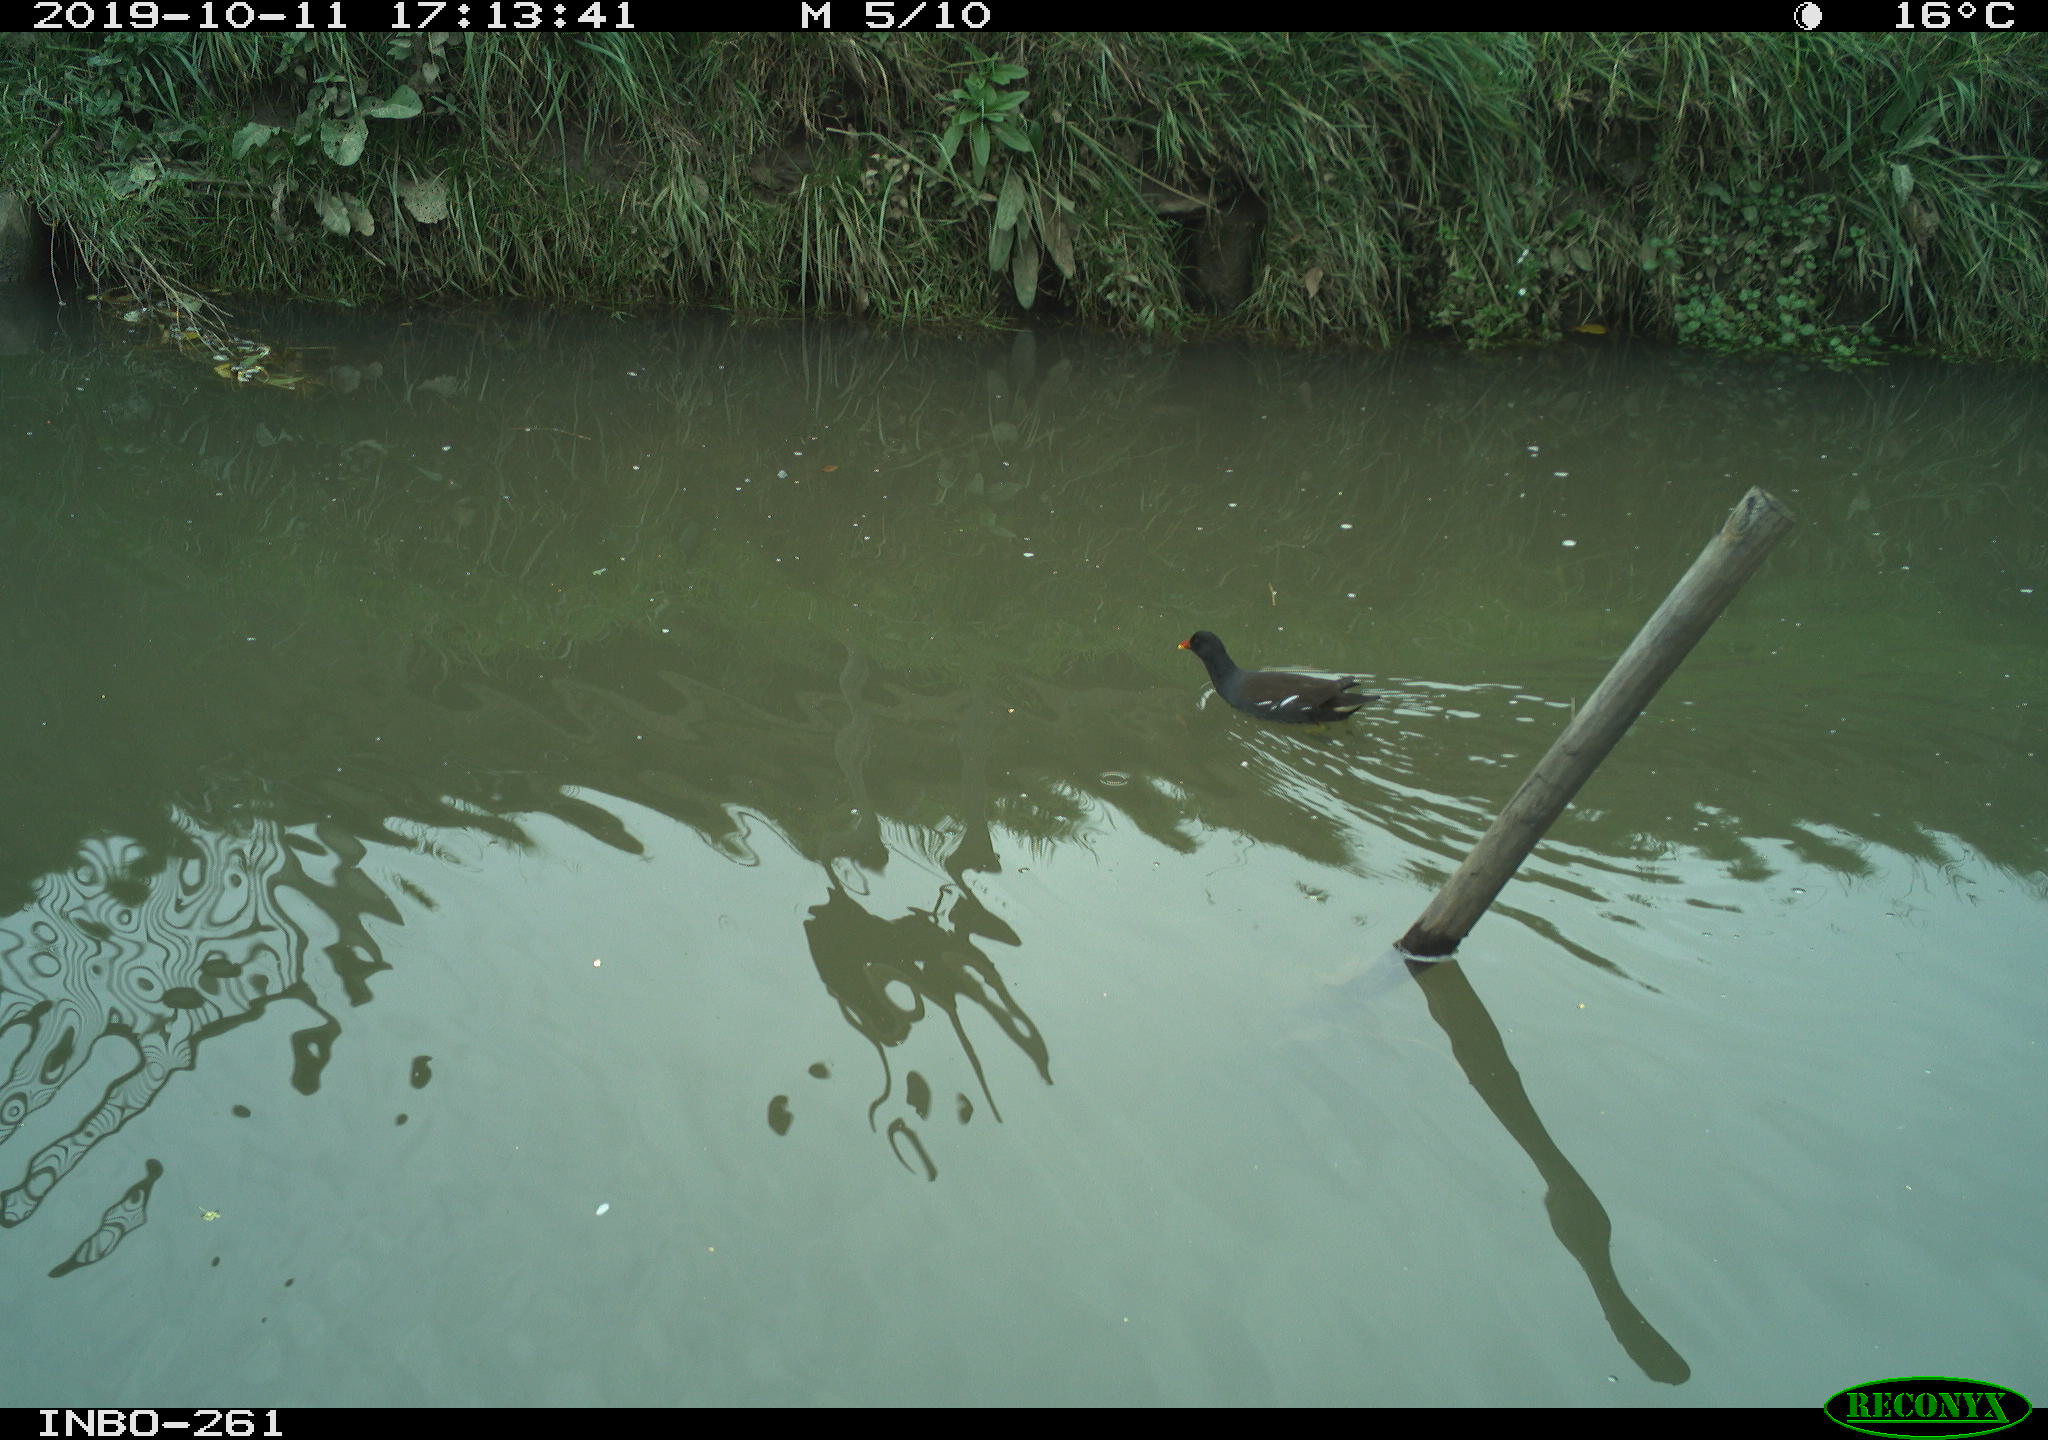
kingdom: Animalia
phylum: Chordata
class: Aves
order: Gruiformes
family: Rallidae
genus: Gallinula
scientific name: Gallinula chloropus
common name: Common moorhen
